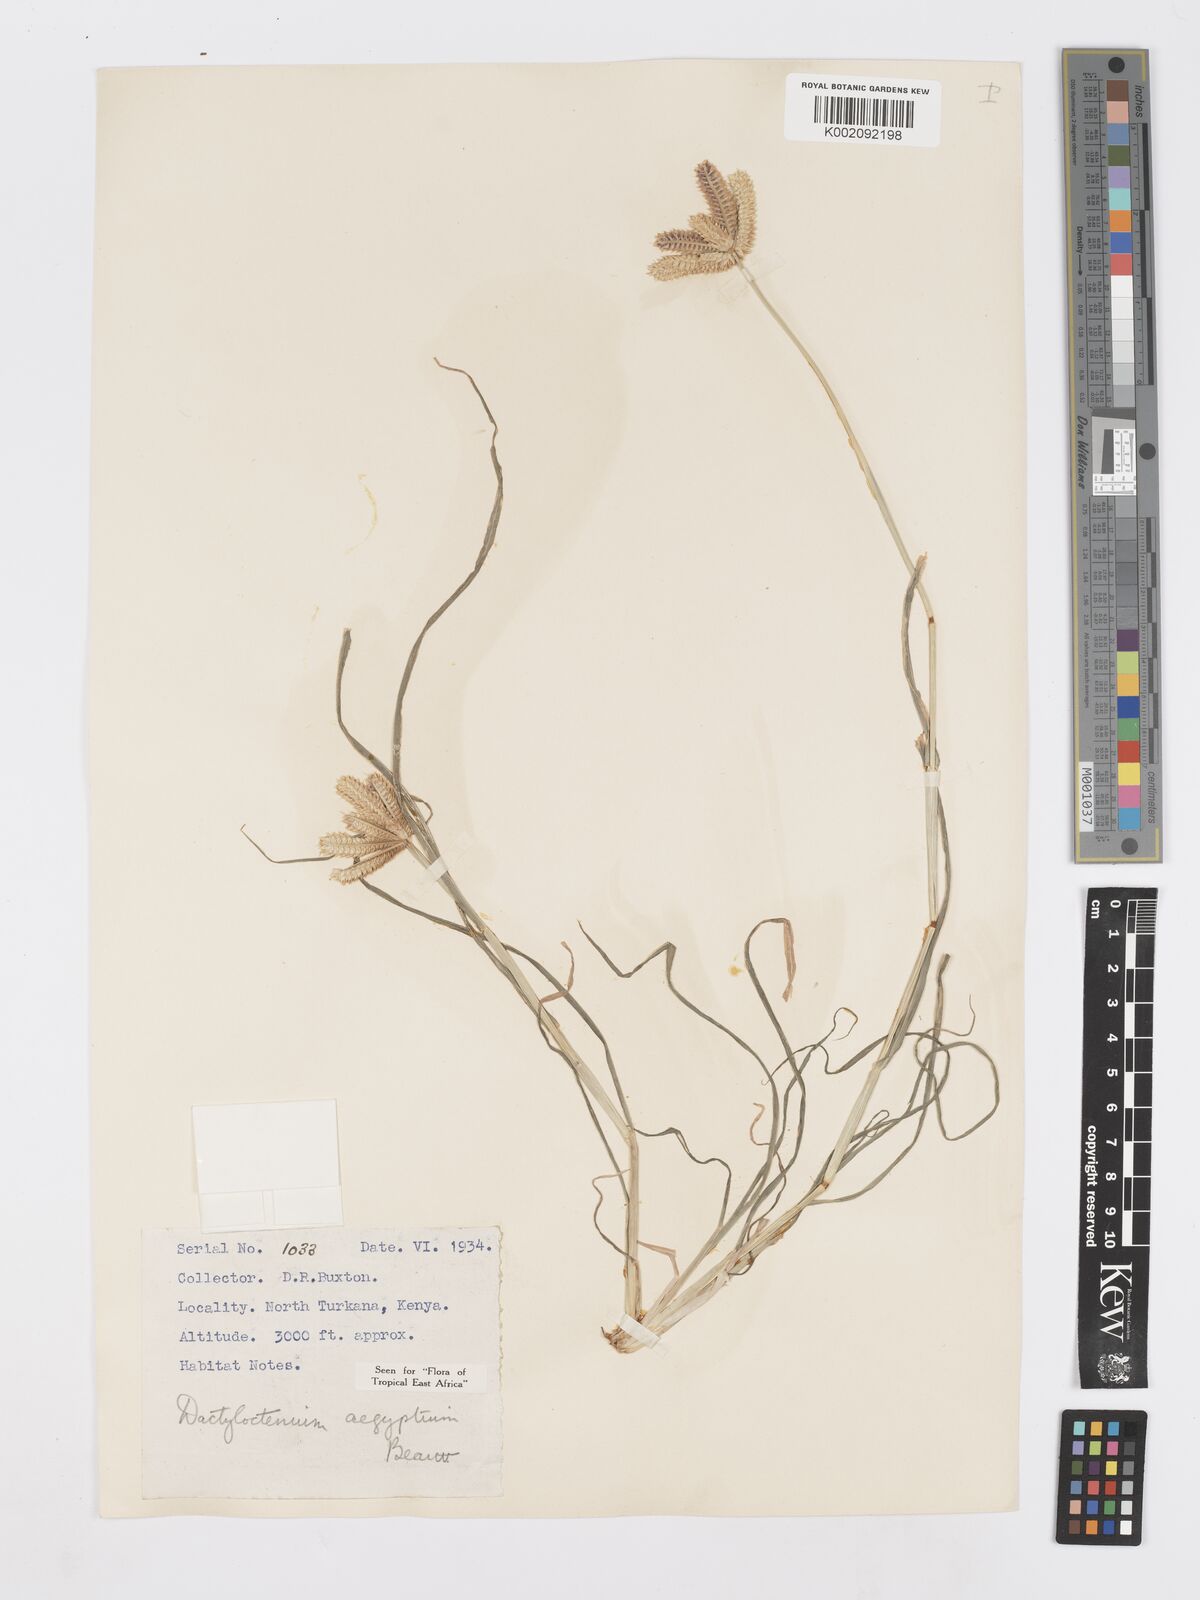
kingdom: Plantae
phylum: Tracheophyta
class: Liliopsida
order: Poales
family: Poaceae
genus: Dactyloctenium
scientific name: Dactyloctenium aegyptium
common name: Egyptian grass
